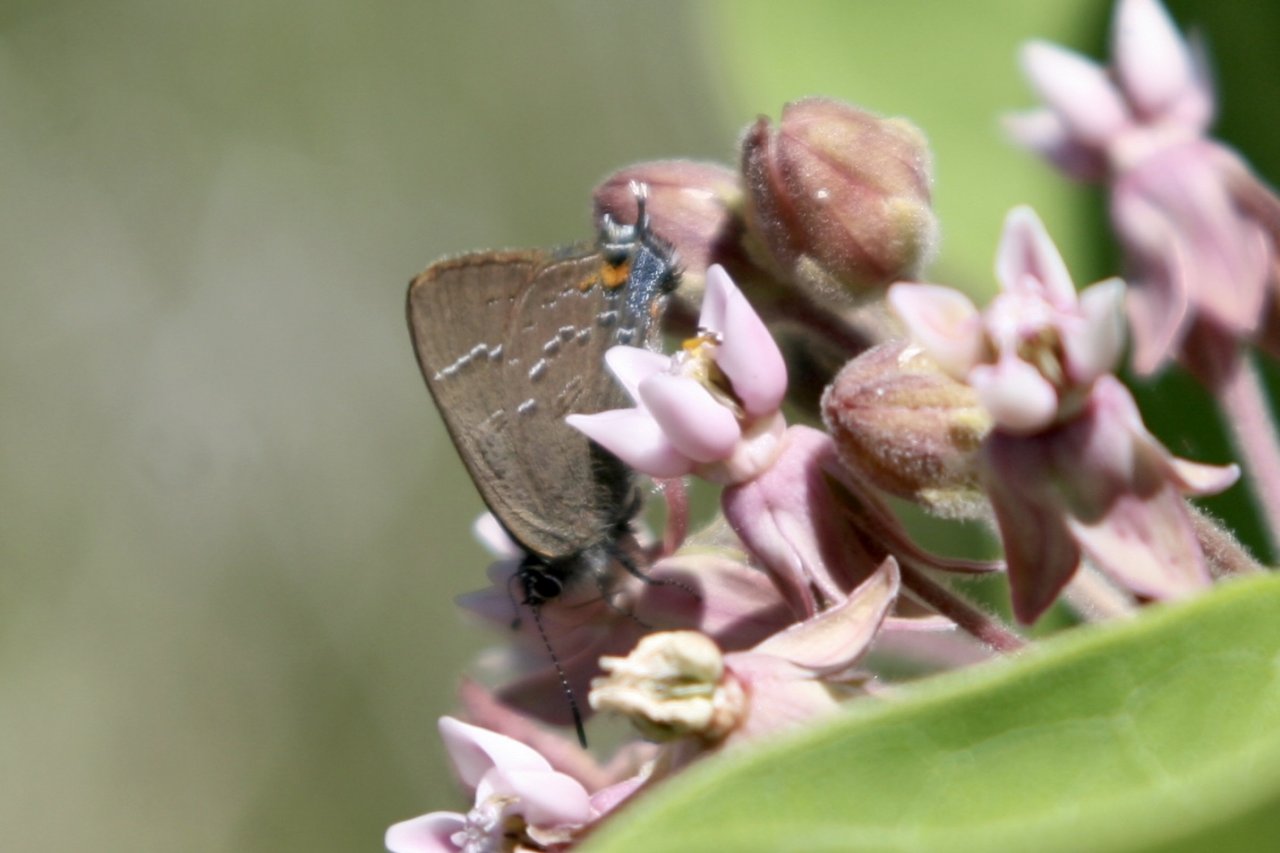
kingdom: Animalia
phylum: Arthropoda
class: Insecta
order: Lepidoptera
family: Lycaenidae
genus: Satyrium
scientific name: Satyrium calanus
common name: Banded Hairstreak
